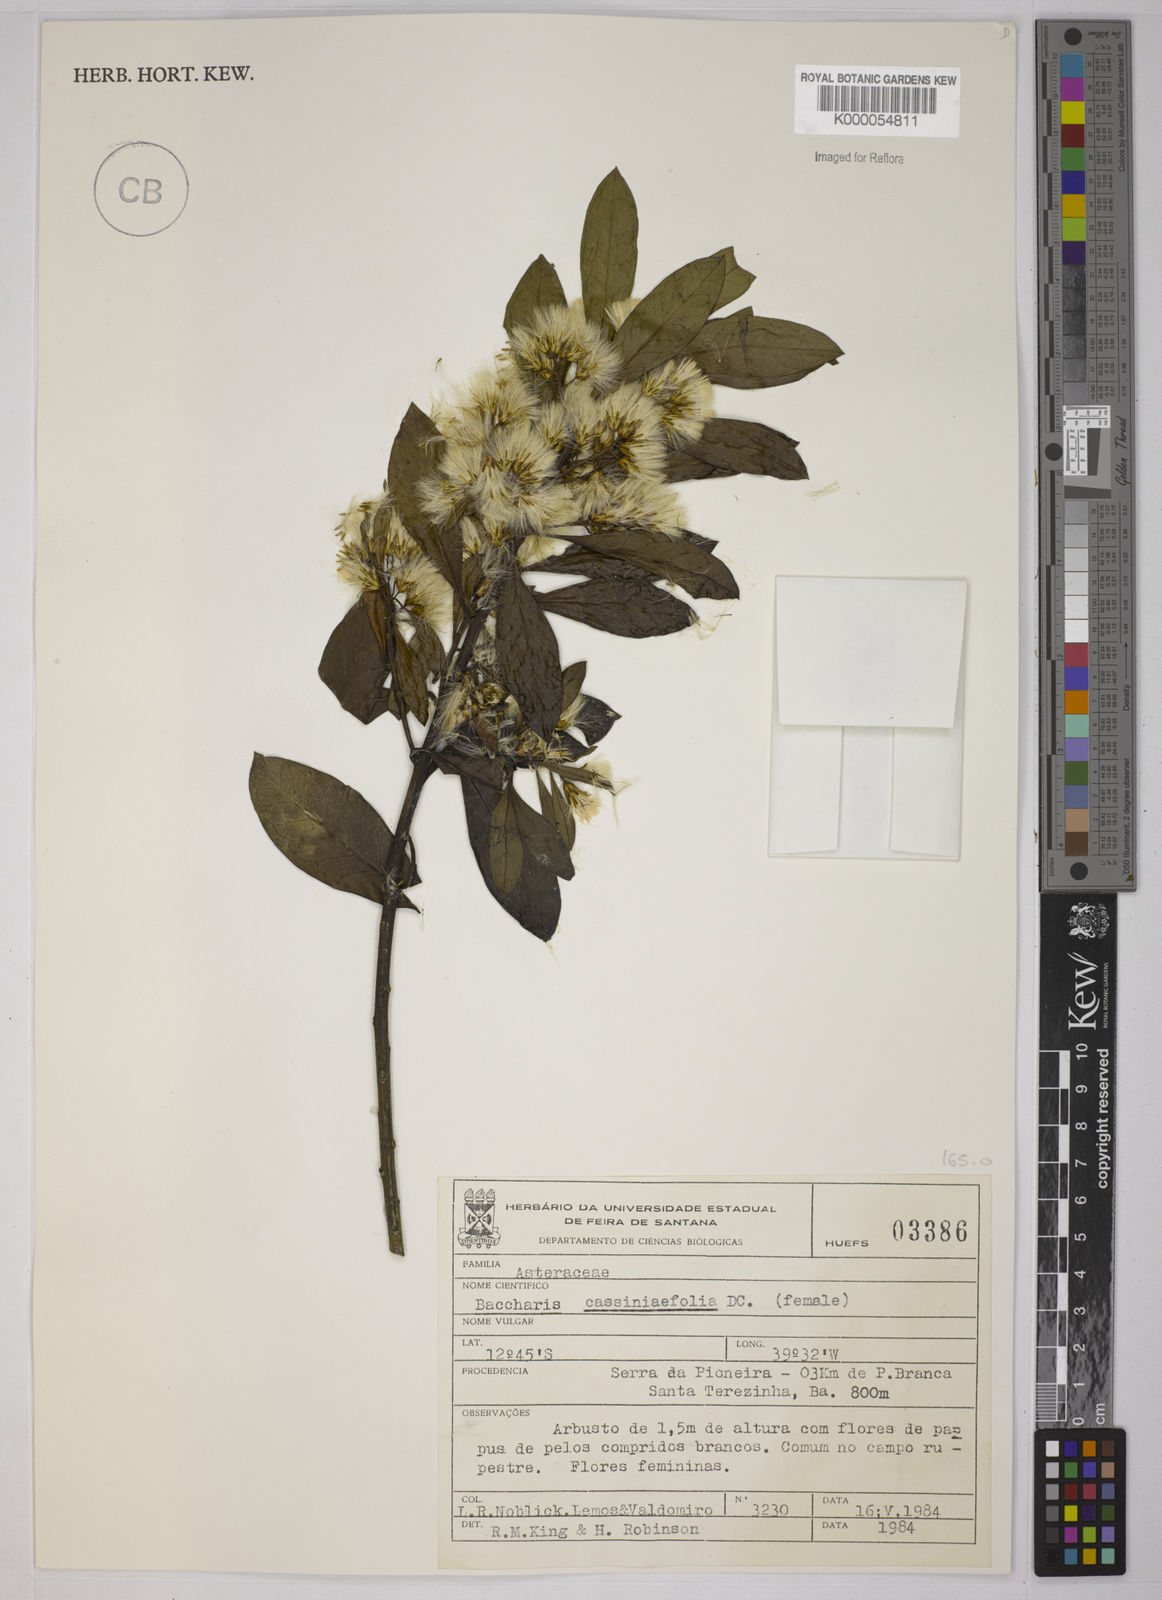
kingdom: Plantae
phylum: Tracheophyta
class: Magnoliopsida
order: Asterales
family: Asteraceae
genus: Baccharis
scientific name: Baccharis singularis
